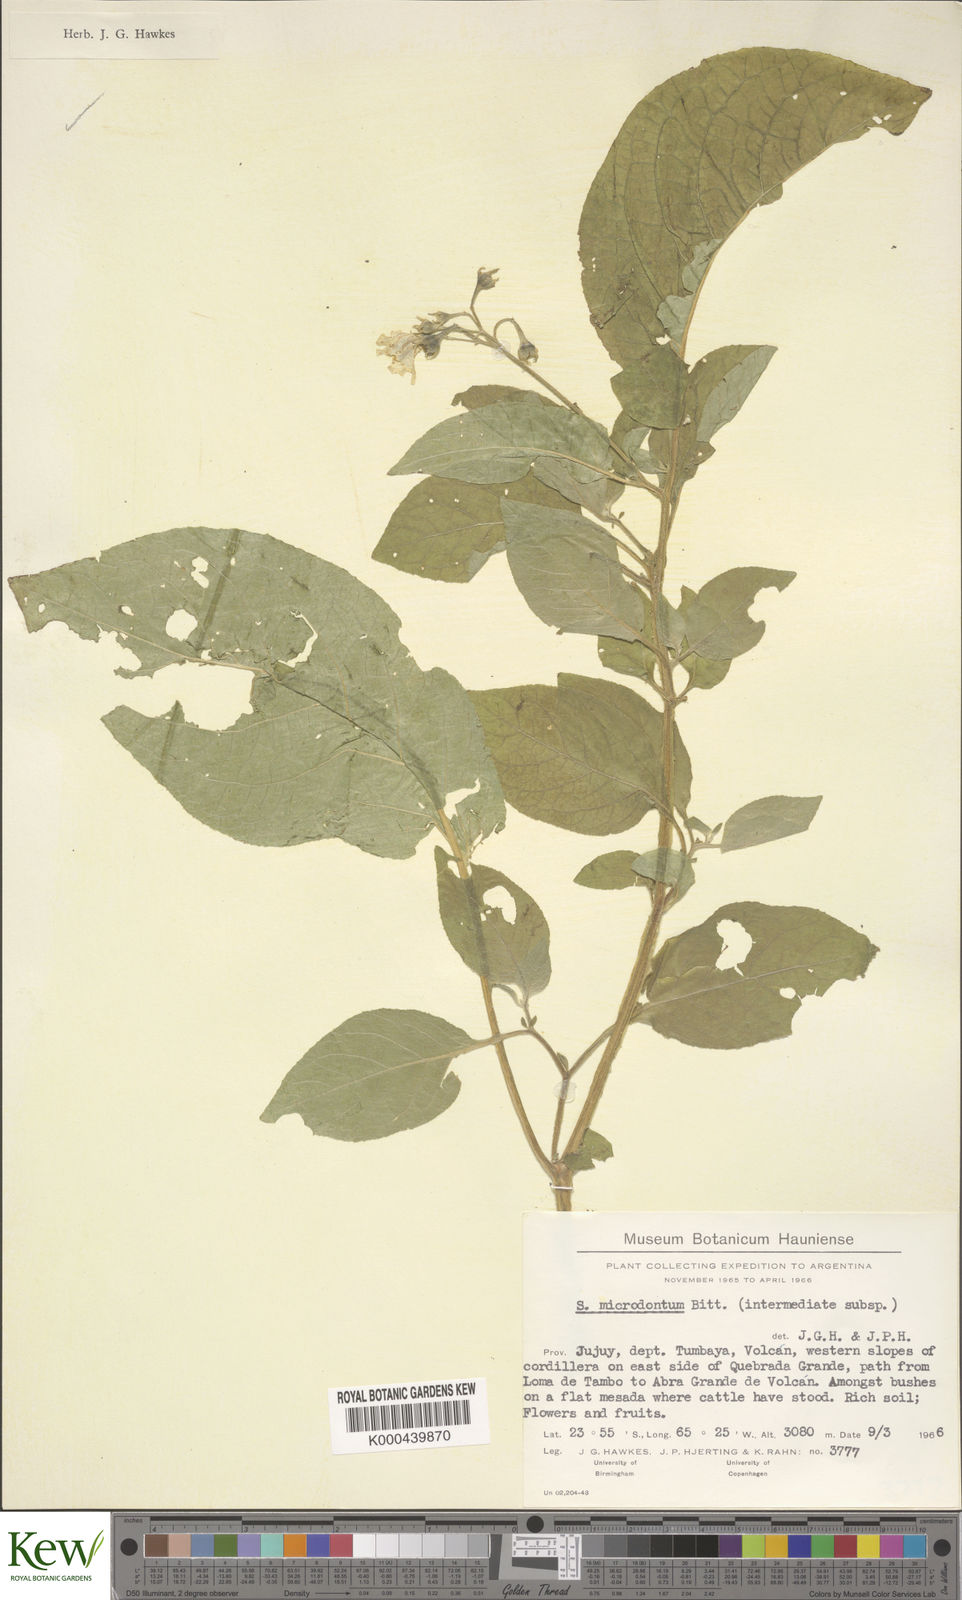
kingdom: Plantae
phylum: Tracheophyta
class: Magnoliopsida
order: Solanales
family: Solanaceae
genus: Solanum
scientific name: Solanum microdontum
